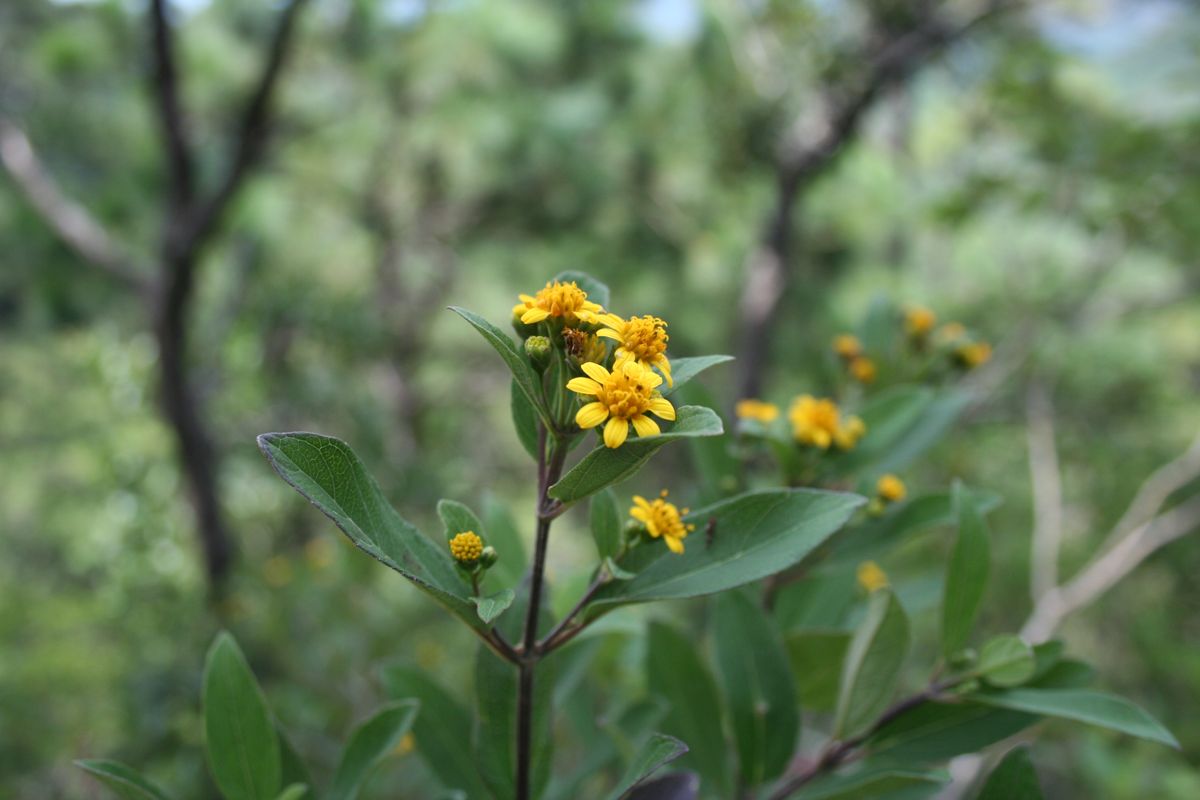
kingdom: Plantae
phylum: Tracheophyta
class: Magnoliopsida
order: Asterales
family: Asteraceae
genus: Perymenium
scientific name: Perymenium nicaraguense
